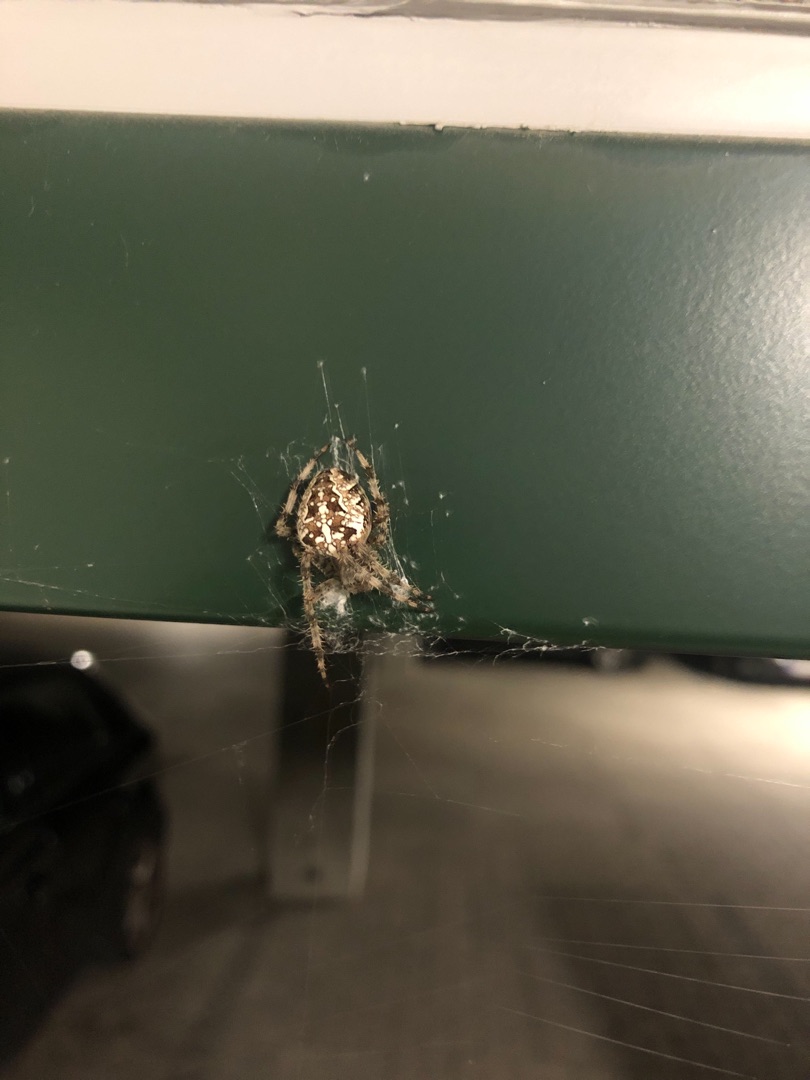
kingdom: Animalia
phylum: Arthropoda
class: Arachnida
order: Araneae
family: Araneidae
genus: Araneus
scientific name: Araneus diadematus
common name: Korsedderkop
